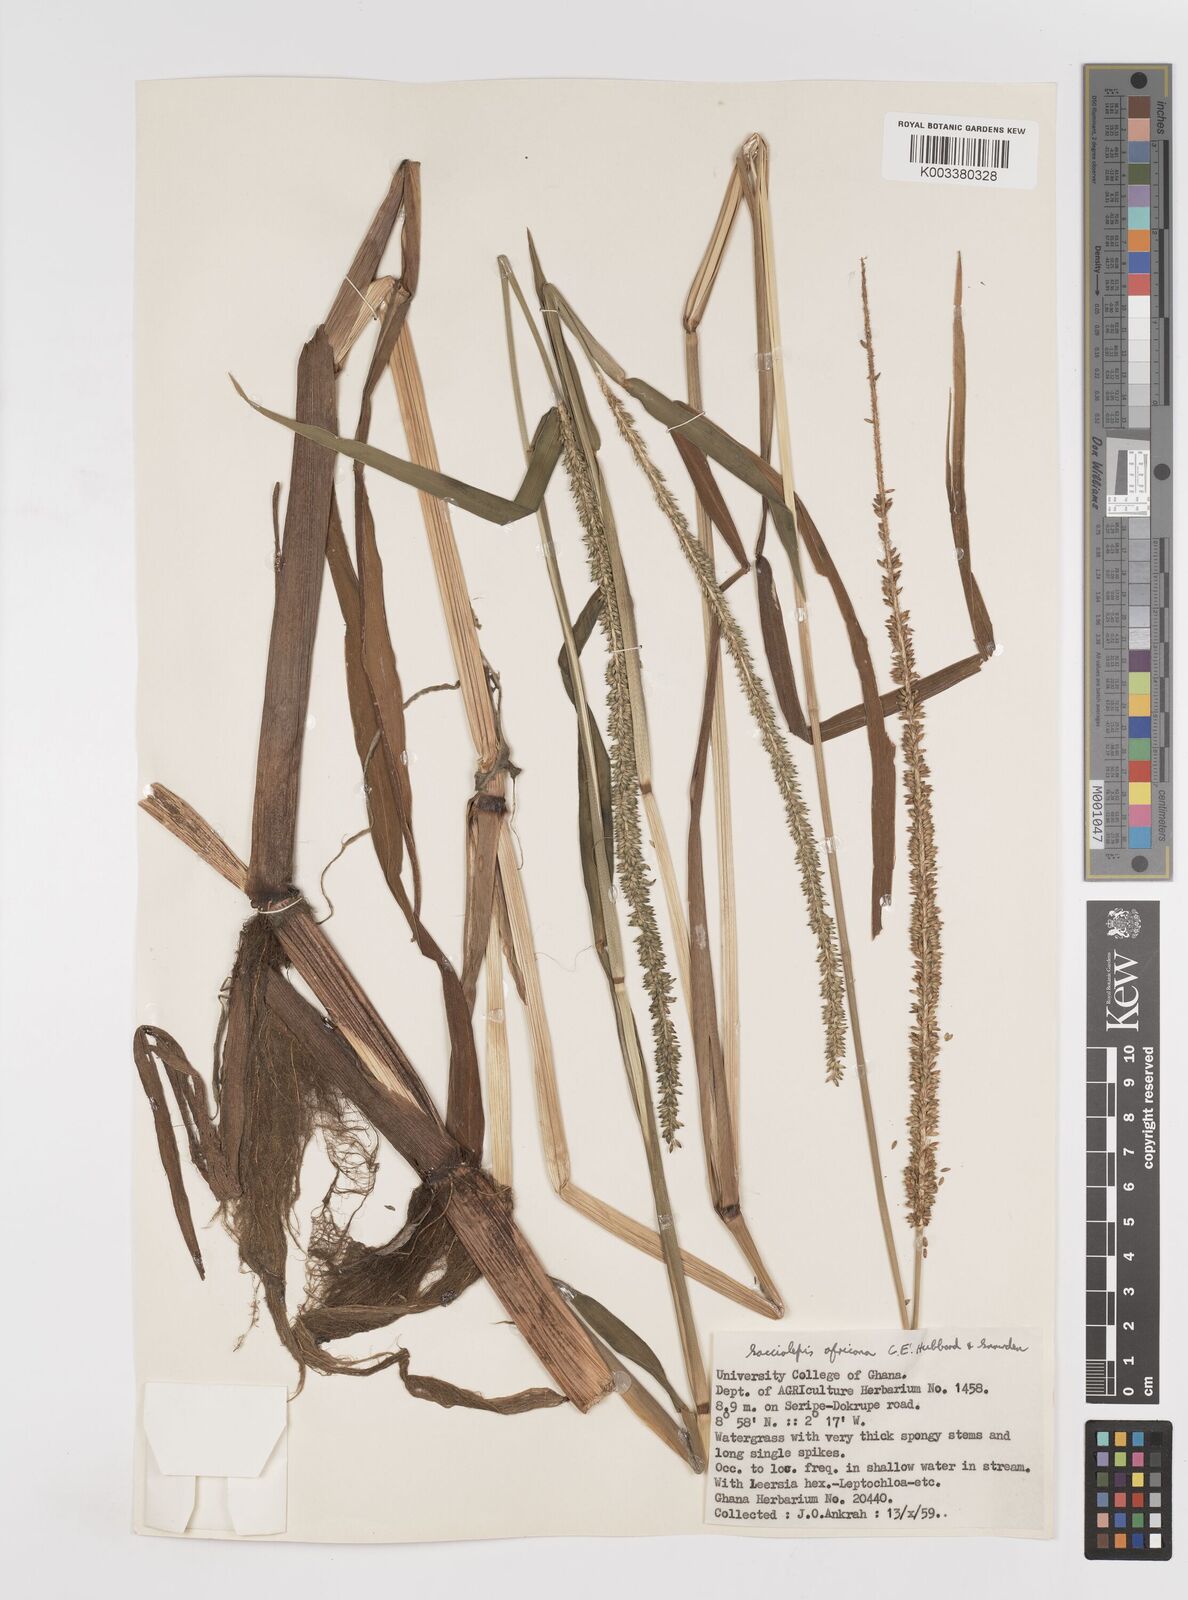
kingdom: Plantae
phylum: Tracheophyta
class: Liliopsida
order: Poales
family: Poaceae
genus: Sacciolepis
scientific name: Sacciolepis africana
